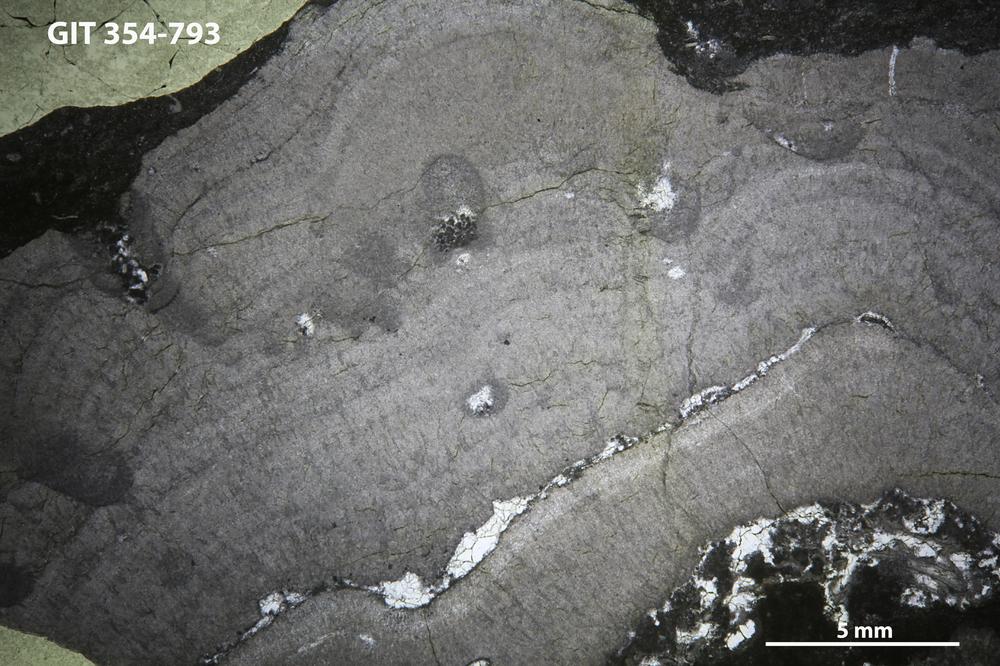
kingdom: Animalia
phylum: Porifera
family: Densastromatidae
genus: Densastroma
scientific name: Densastroma
